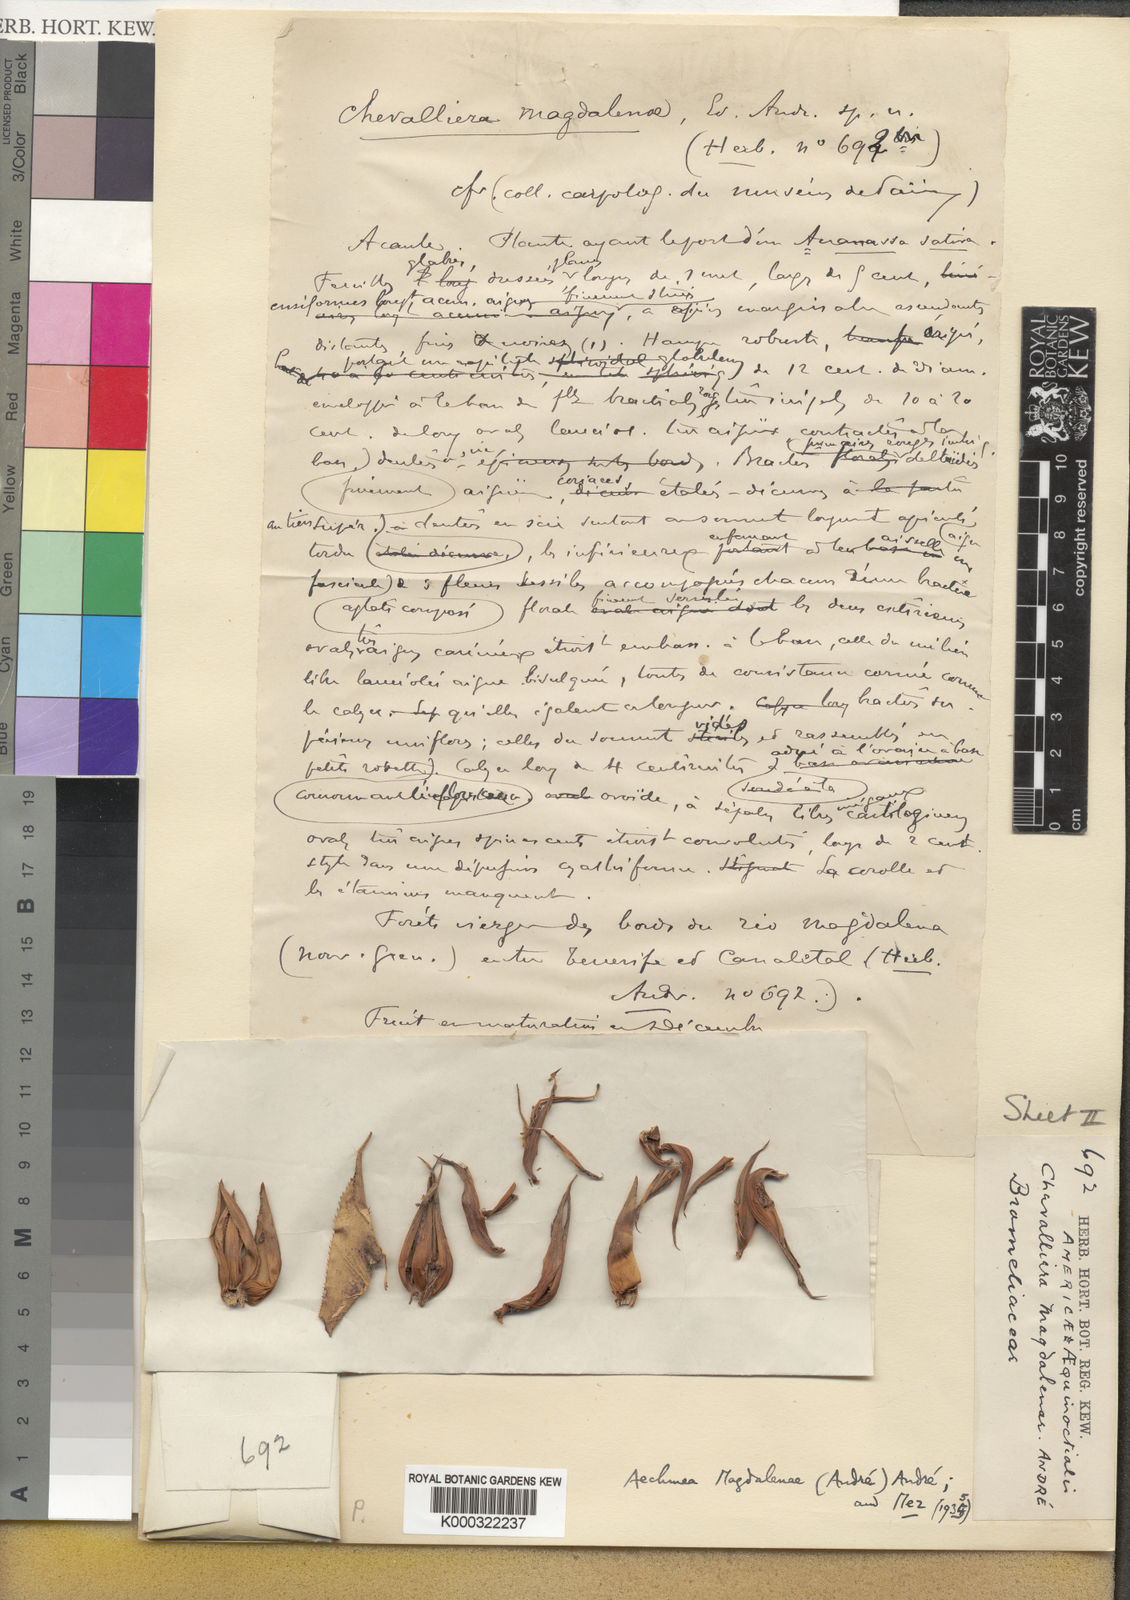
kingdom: Plantae
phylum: Tracheophyta
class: Liliopsida
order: Poales
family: Bromeliaceae
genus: Aechmea
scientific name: Aechmea
